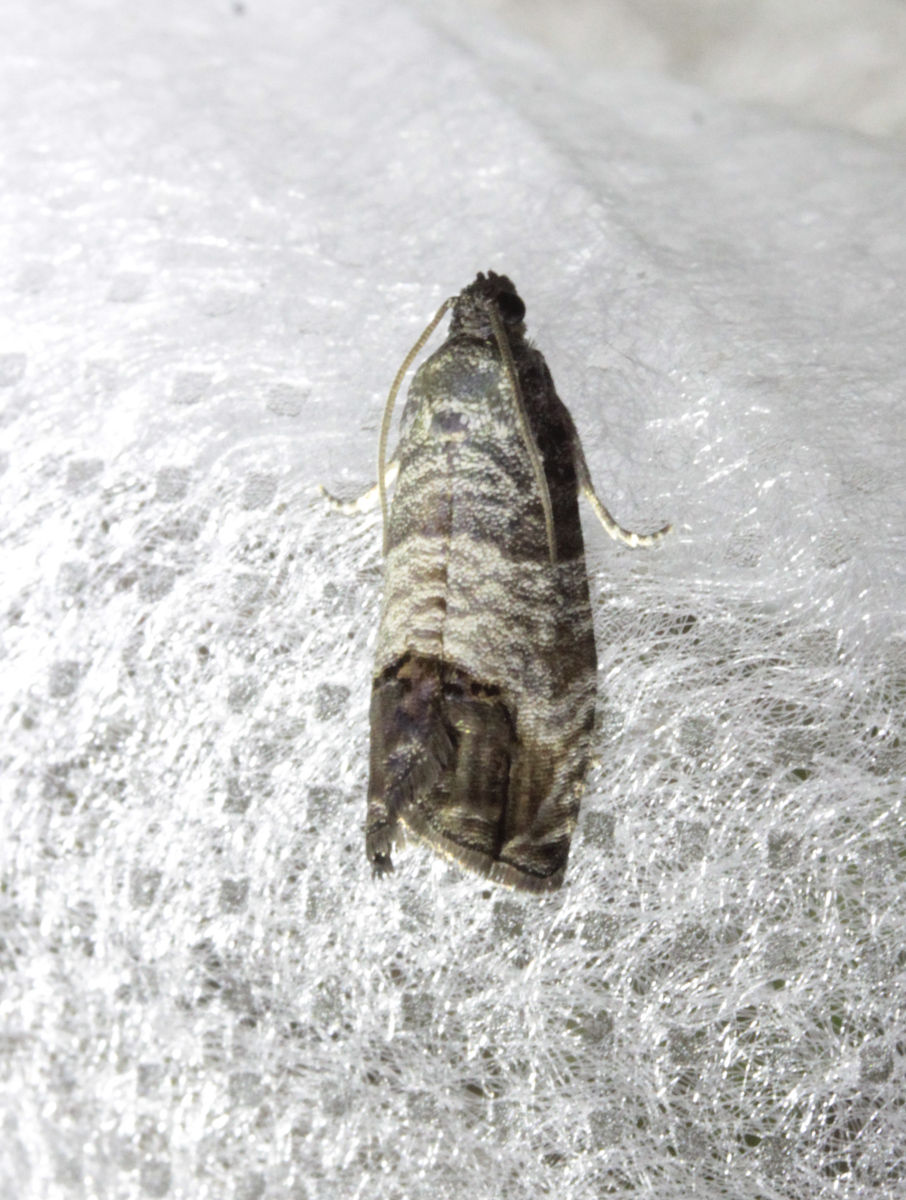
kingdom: Animalia
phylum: Arthropoda
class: Insecta
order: Lepidoptera
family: Tortricidae
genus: Cydia
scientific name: Cydia splendana
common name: De: kastanienwickler, eichenwickler es: oruga de la castaña fr: carpocapse des châtaignes it: cidia o tortrice tardiva delle castagne pt: bichado das castanhas gb: acorn moth, chestnut fruit tortrix
